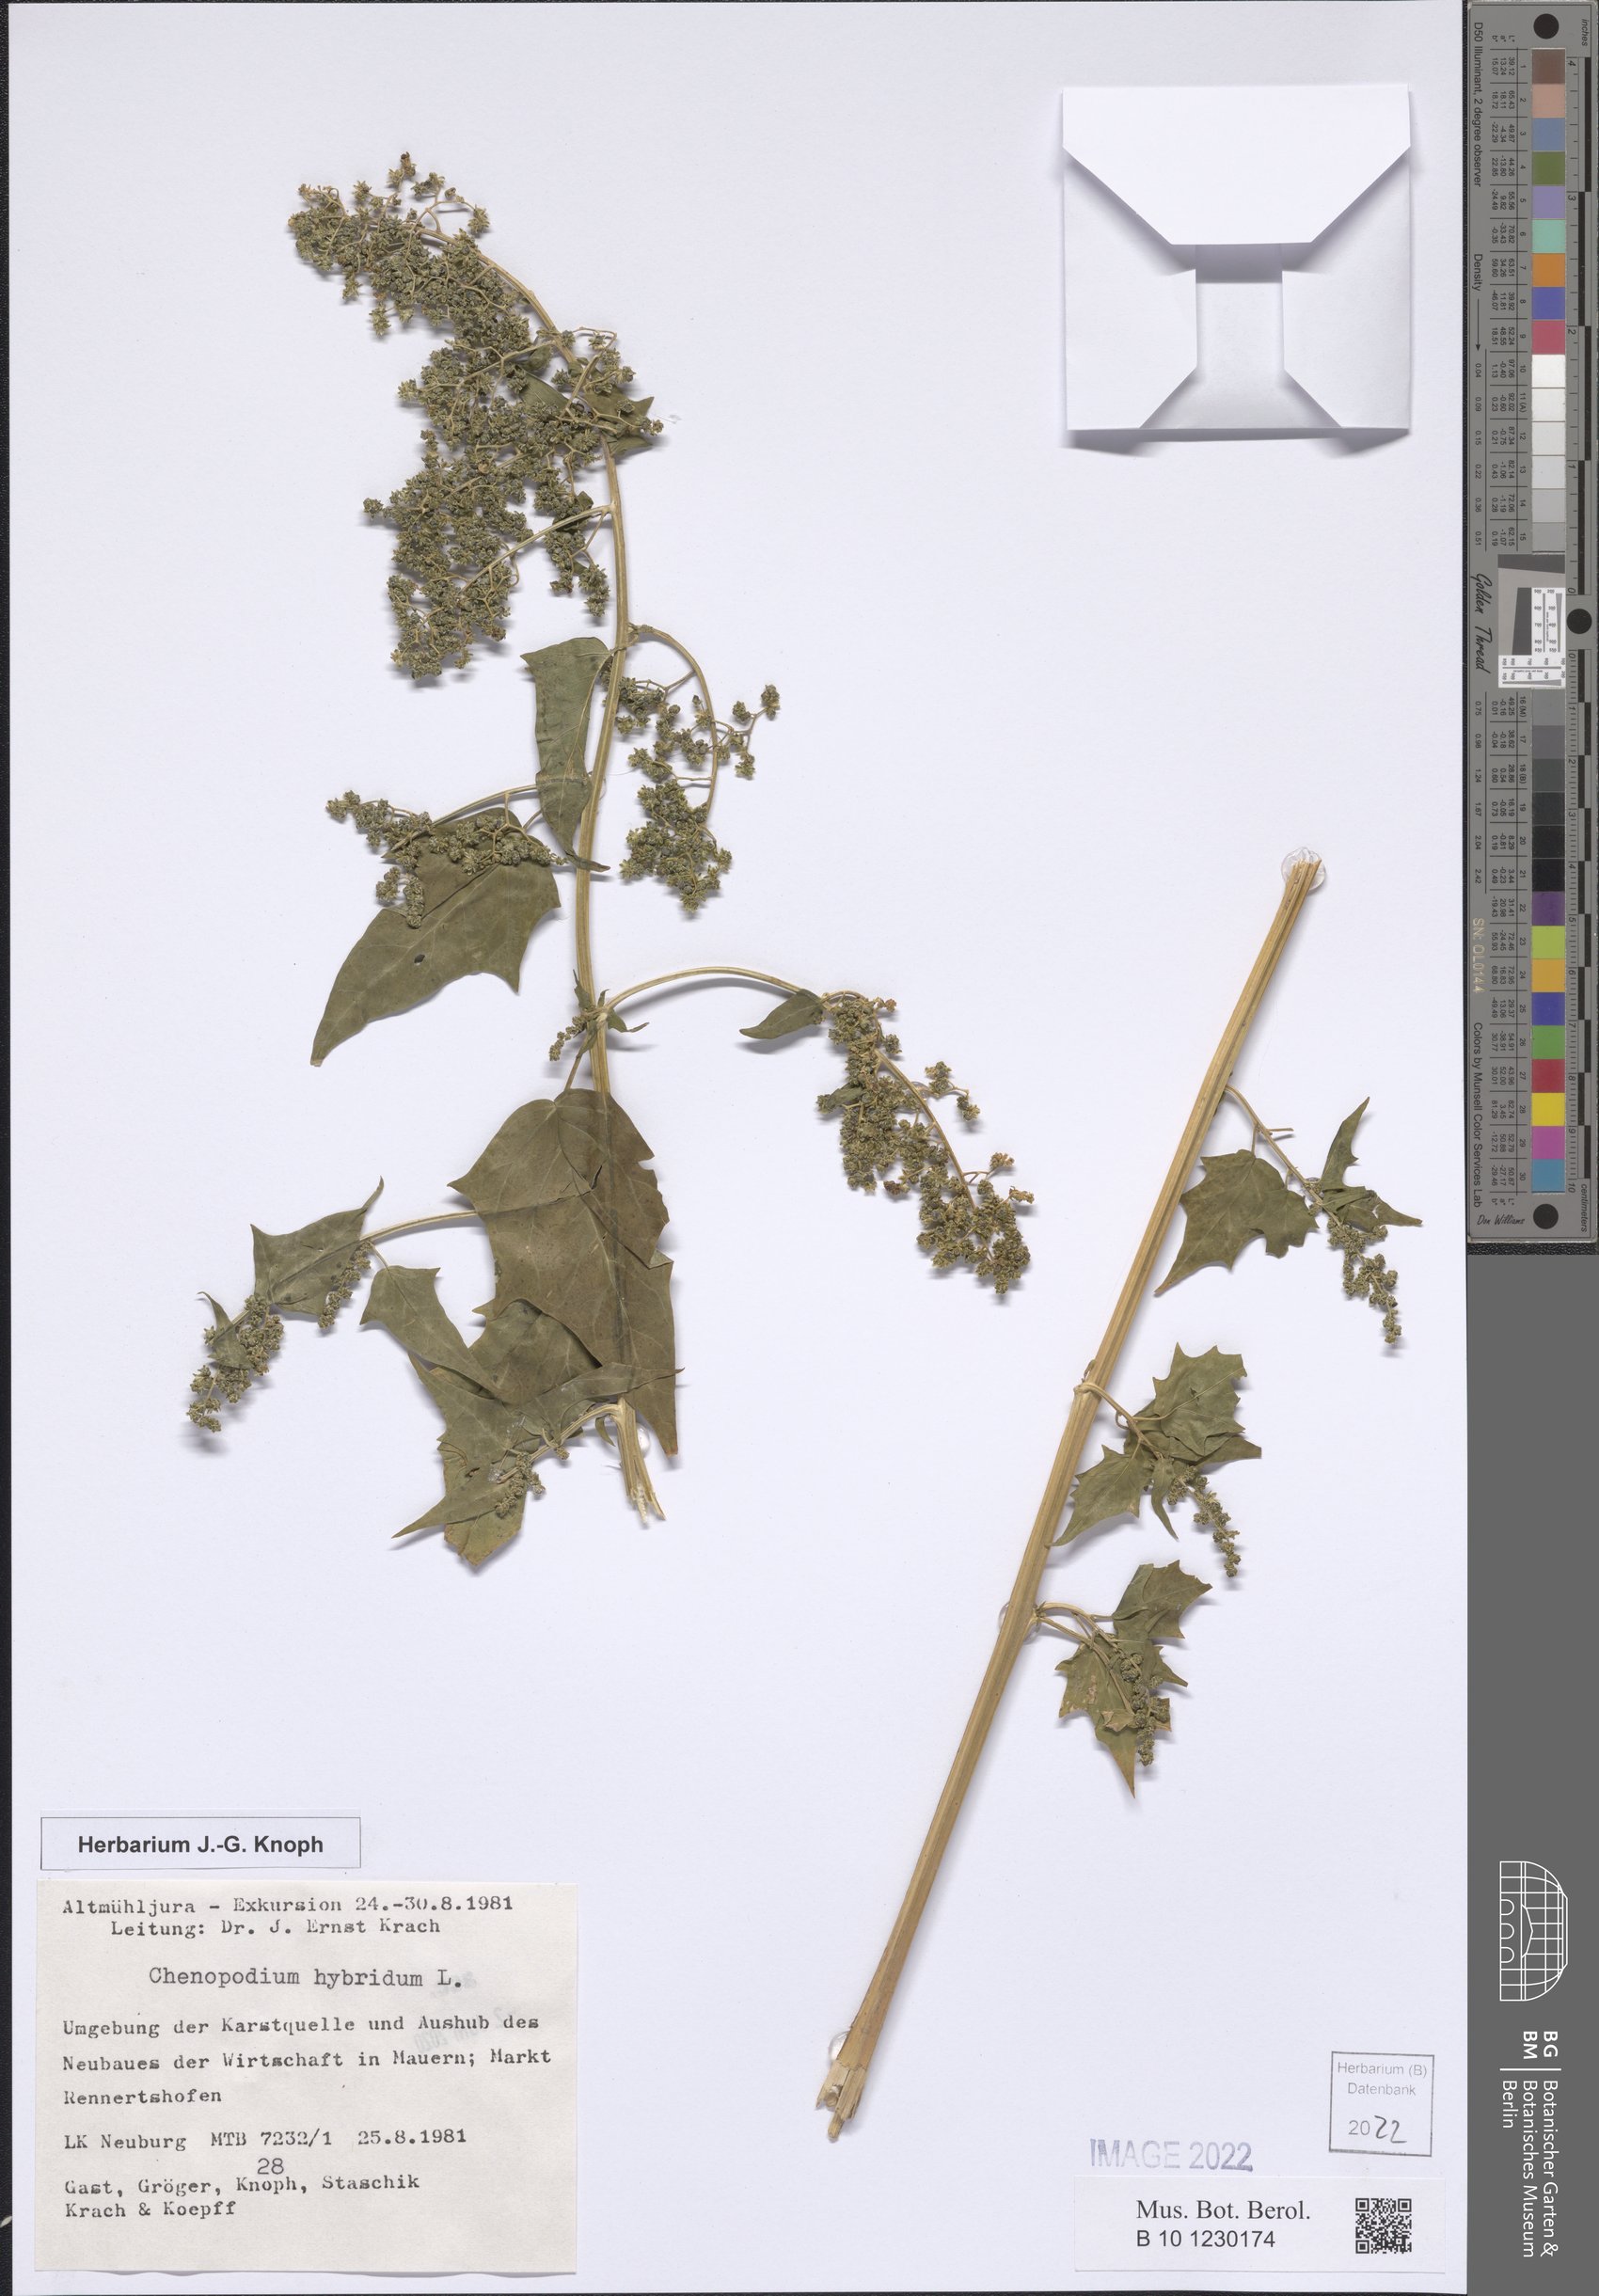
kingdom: Plantae
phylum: Tracheophyta
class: Magnoliopsida
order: Caryophyllales
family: Amaranthaceae
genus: Chenopodiastrum
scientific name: Chenopodiastrum hybridum
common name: Mapleleaf goosefoot
